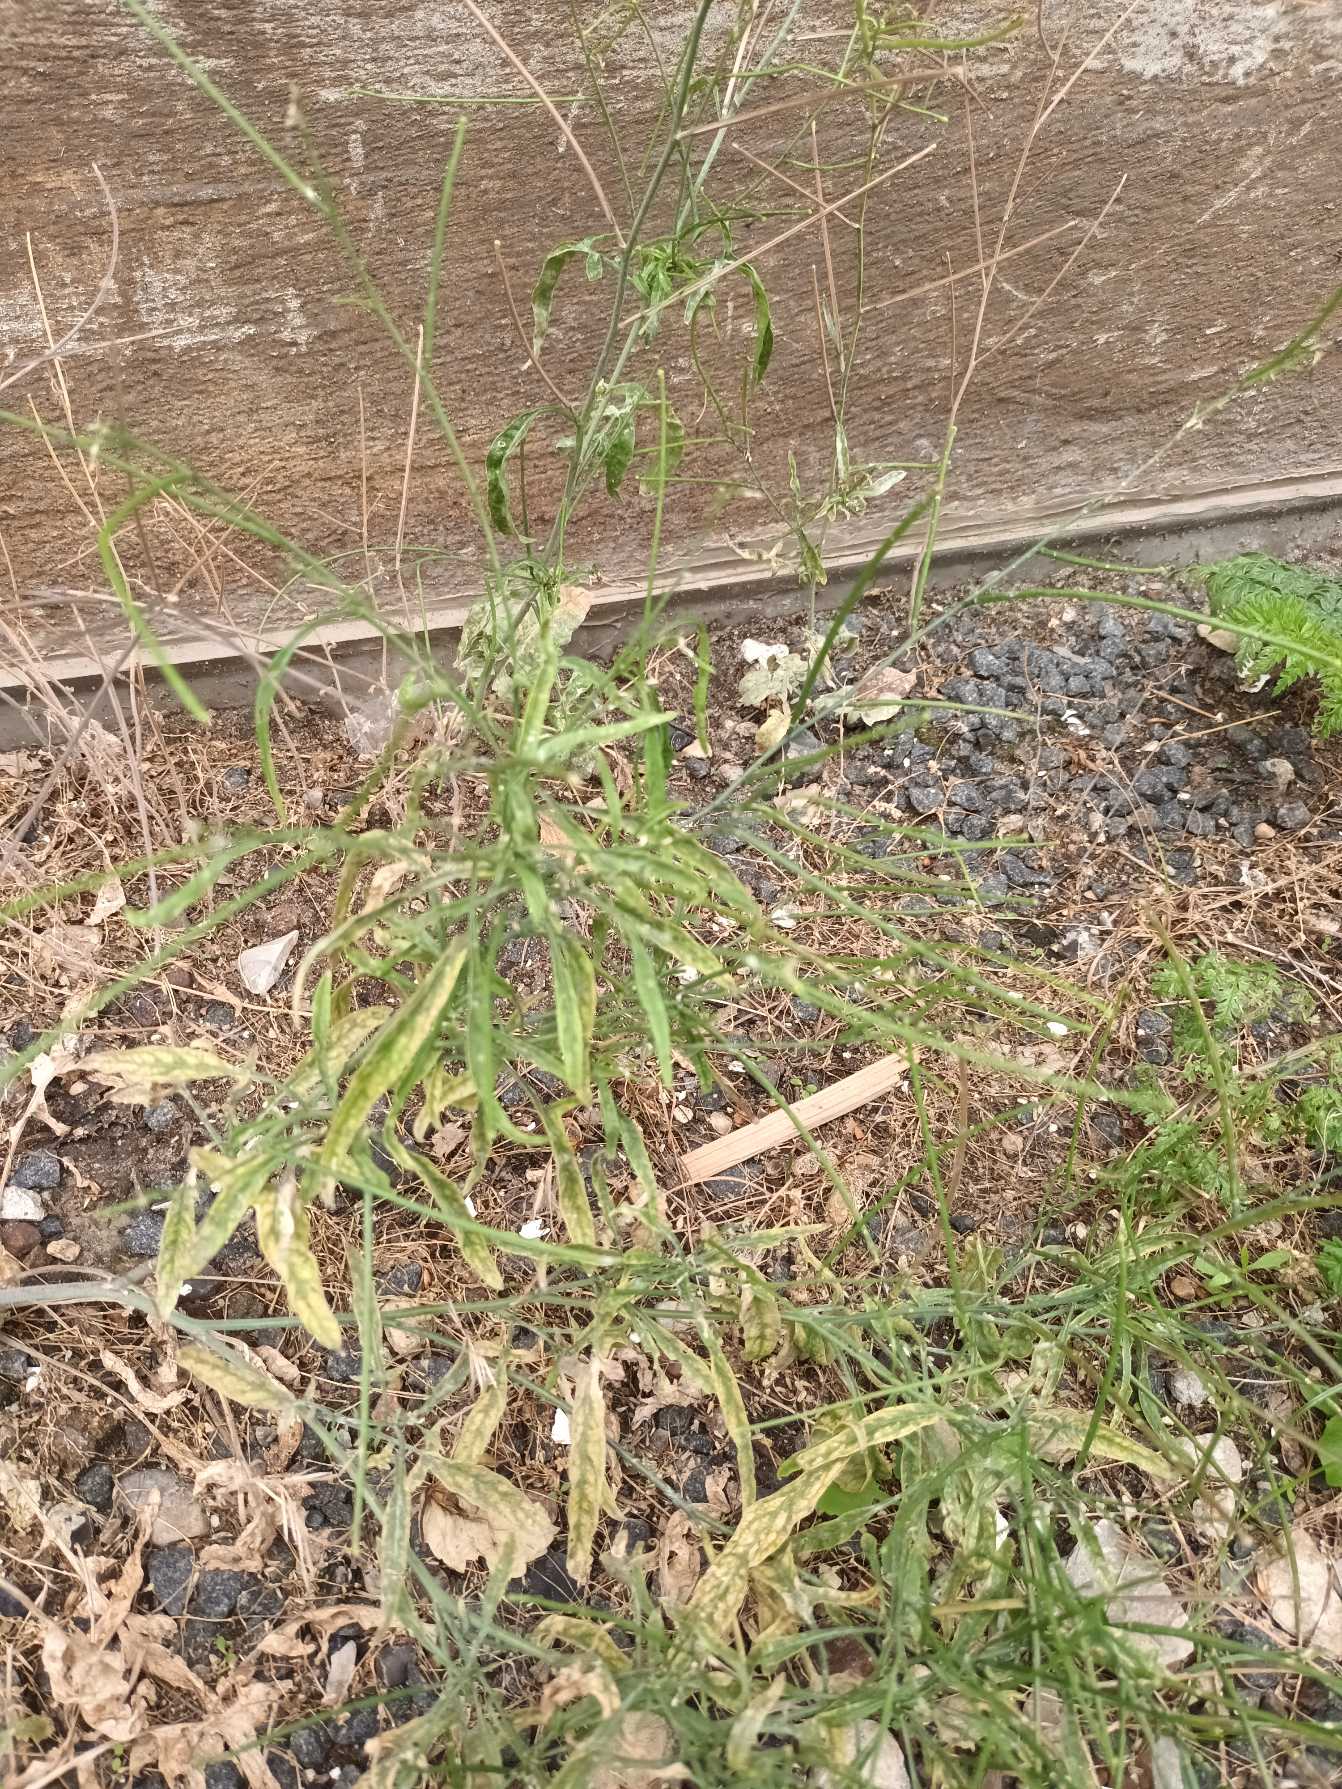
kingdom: Plantae
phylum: Tracheophyta
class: Magnoliopsida
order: Brassicales
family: Brassicaceae
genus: Sisymbrium
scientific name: Sisymbrium orientale
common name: Orientalsk vejsennep
